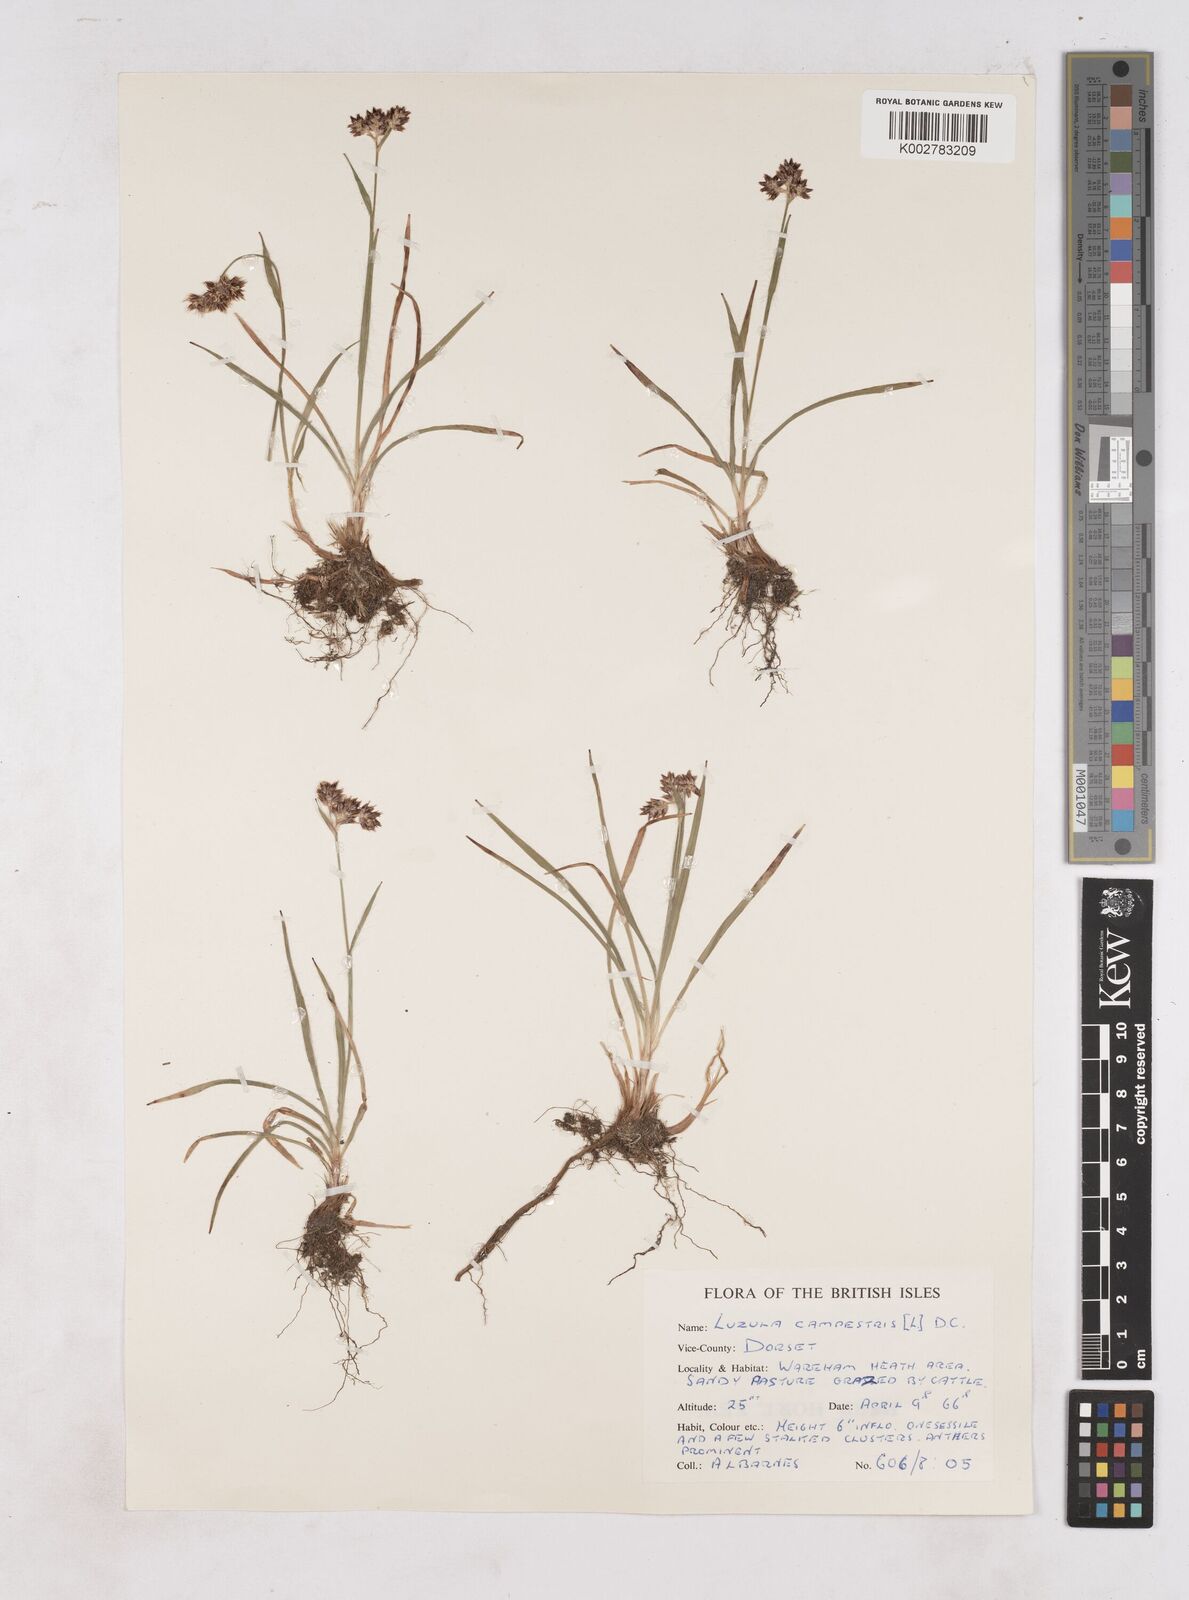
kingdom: Plantae
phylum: Tracheophyta
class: Liliopsida
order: Poales
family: Juncaceae
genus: Luzula
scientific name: Luzula multiflora
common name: Heath wood-rush
